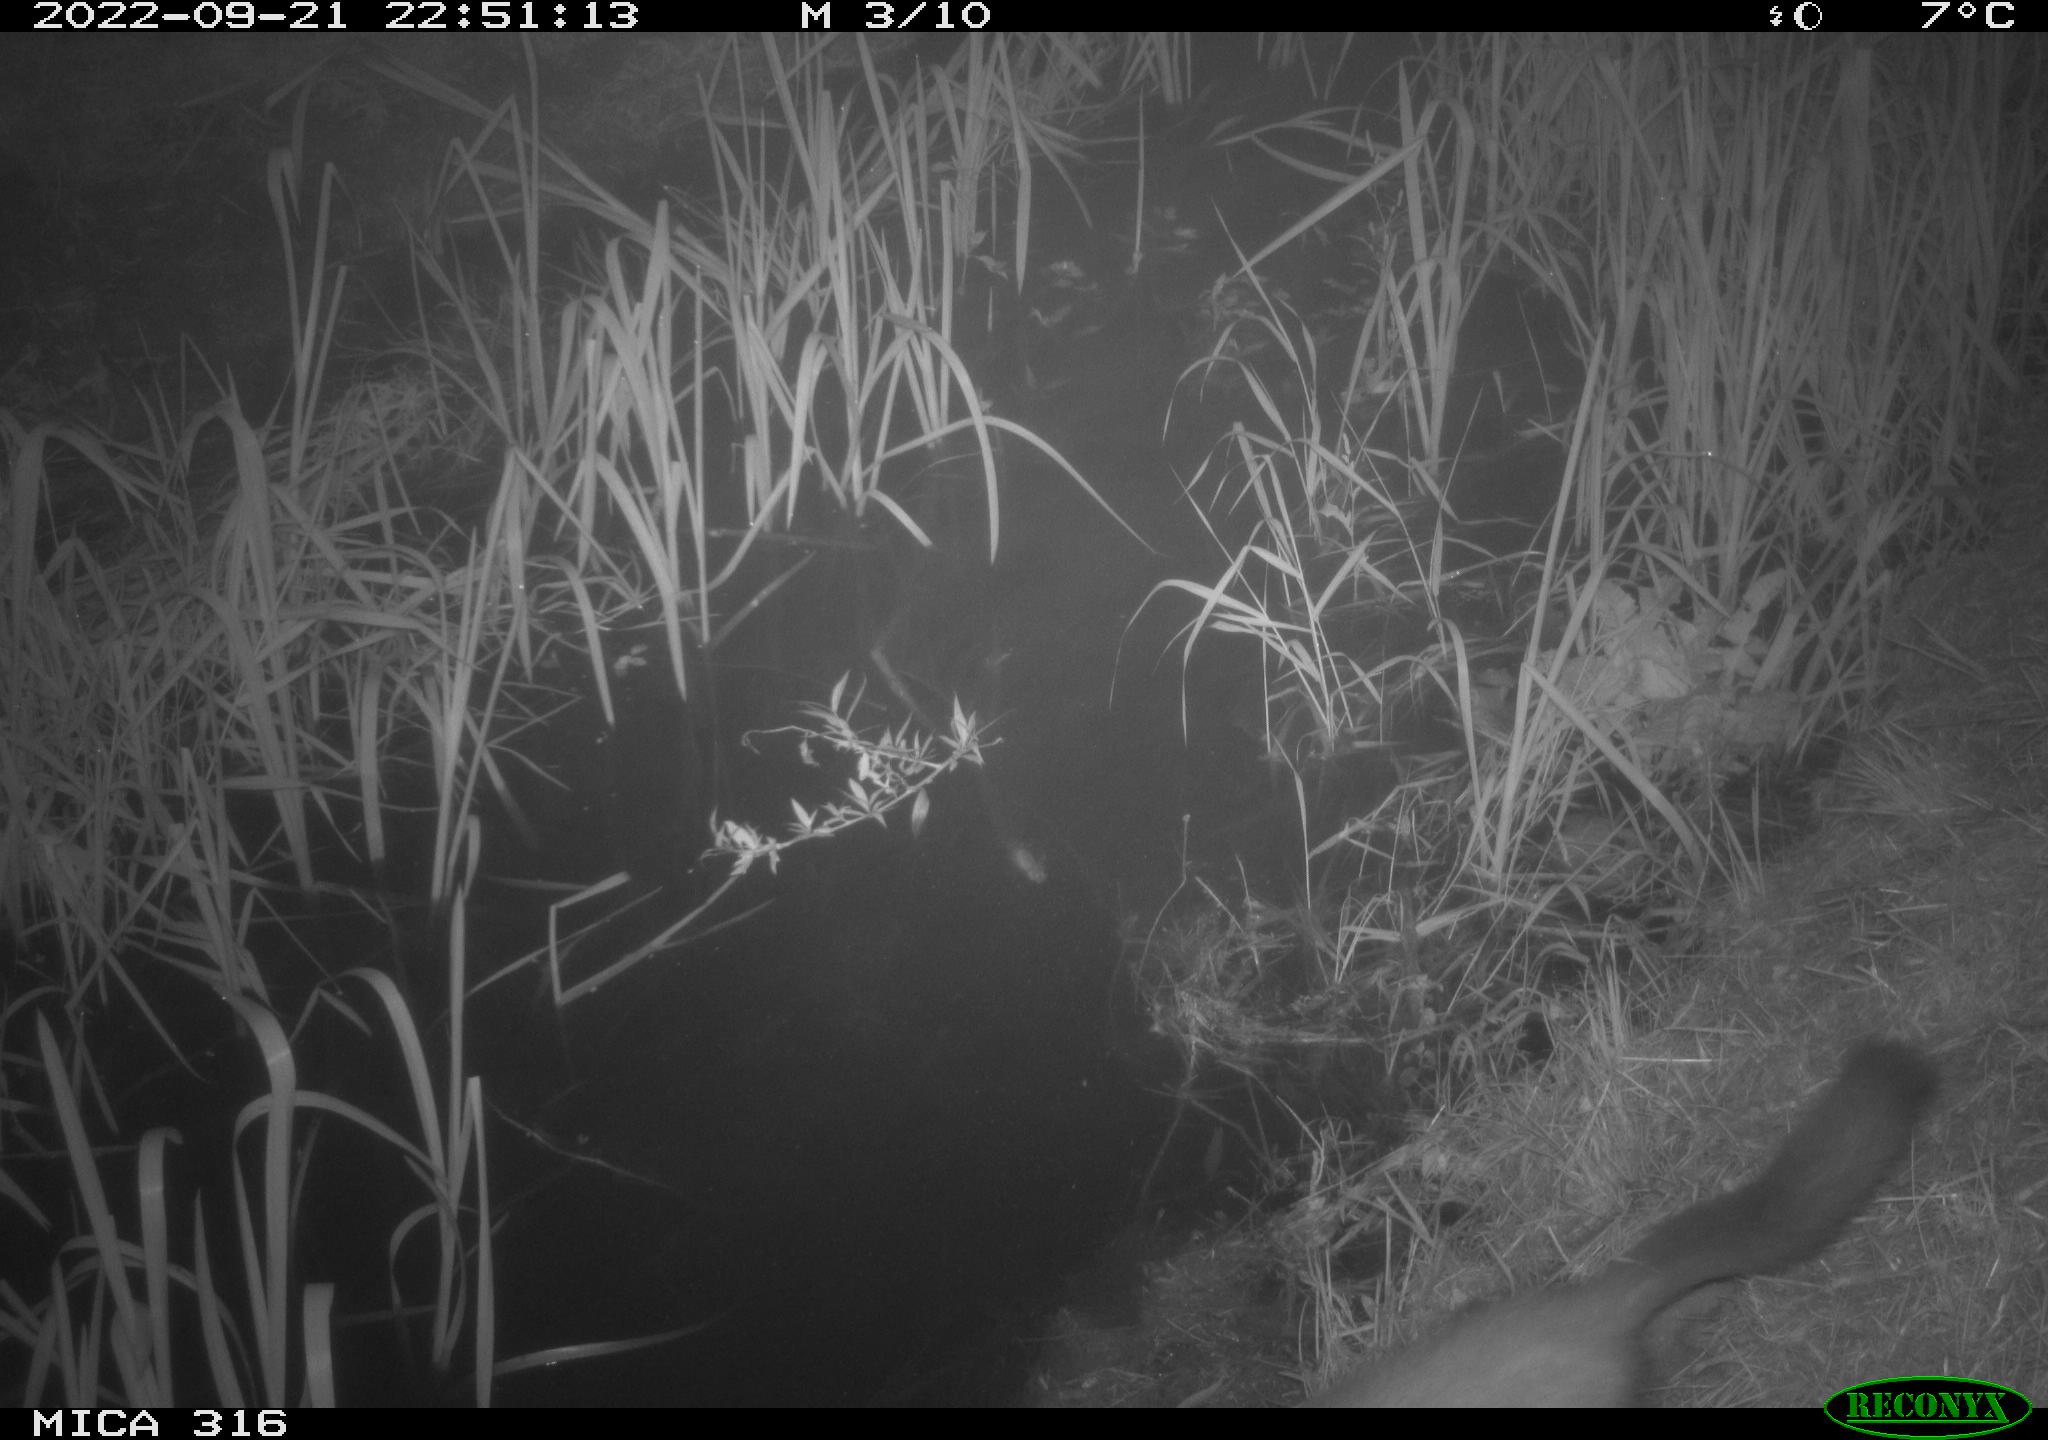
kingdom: Animalia
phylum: Chordata
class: Mammalia
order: Carnivora
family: Mustelidae
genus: Martes
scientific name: Martes martes
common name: European pine marten
